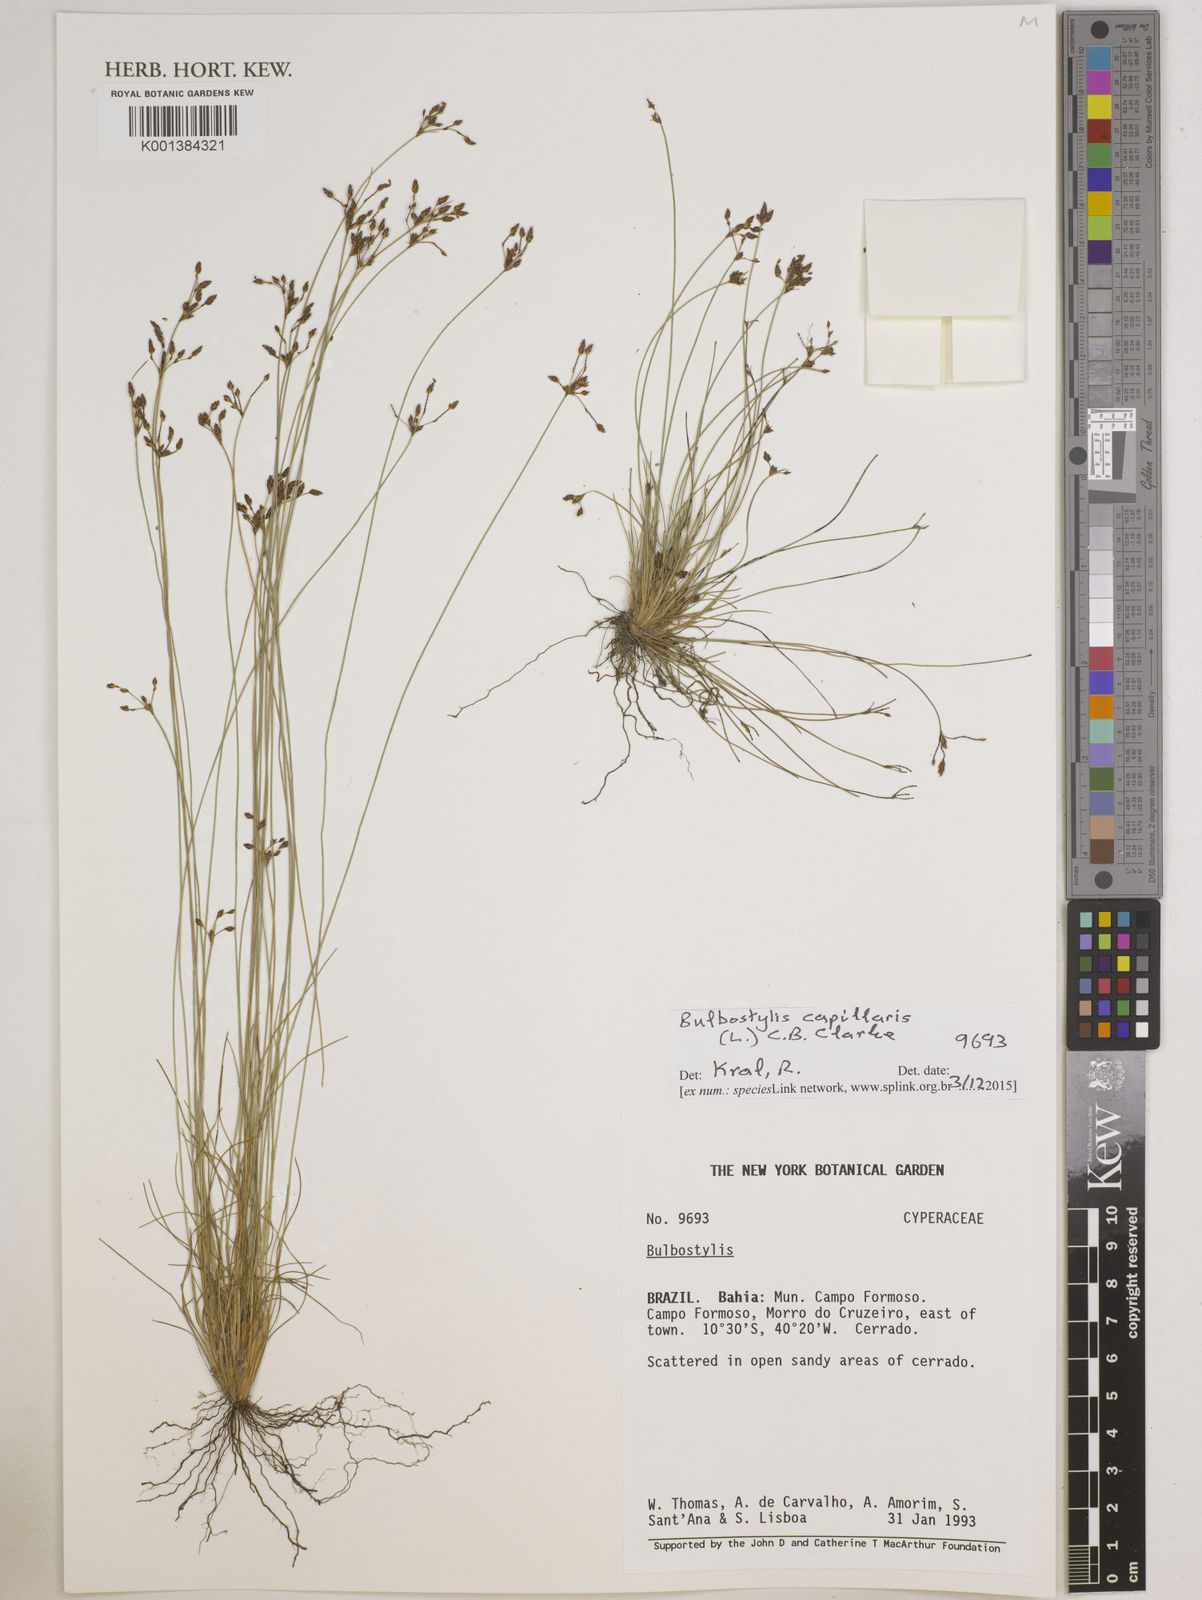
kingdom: Plantae
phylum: Tracheophyta
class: Liliopsida
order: Poales
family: Cyperaceae
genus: Bulbostylis
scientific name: Bulbostylis capillaris
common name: Densetuft hairsedge
